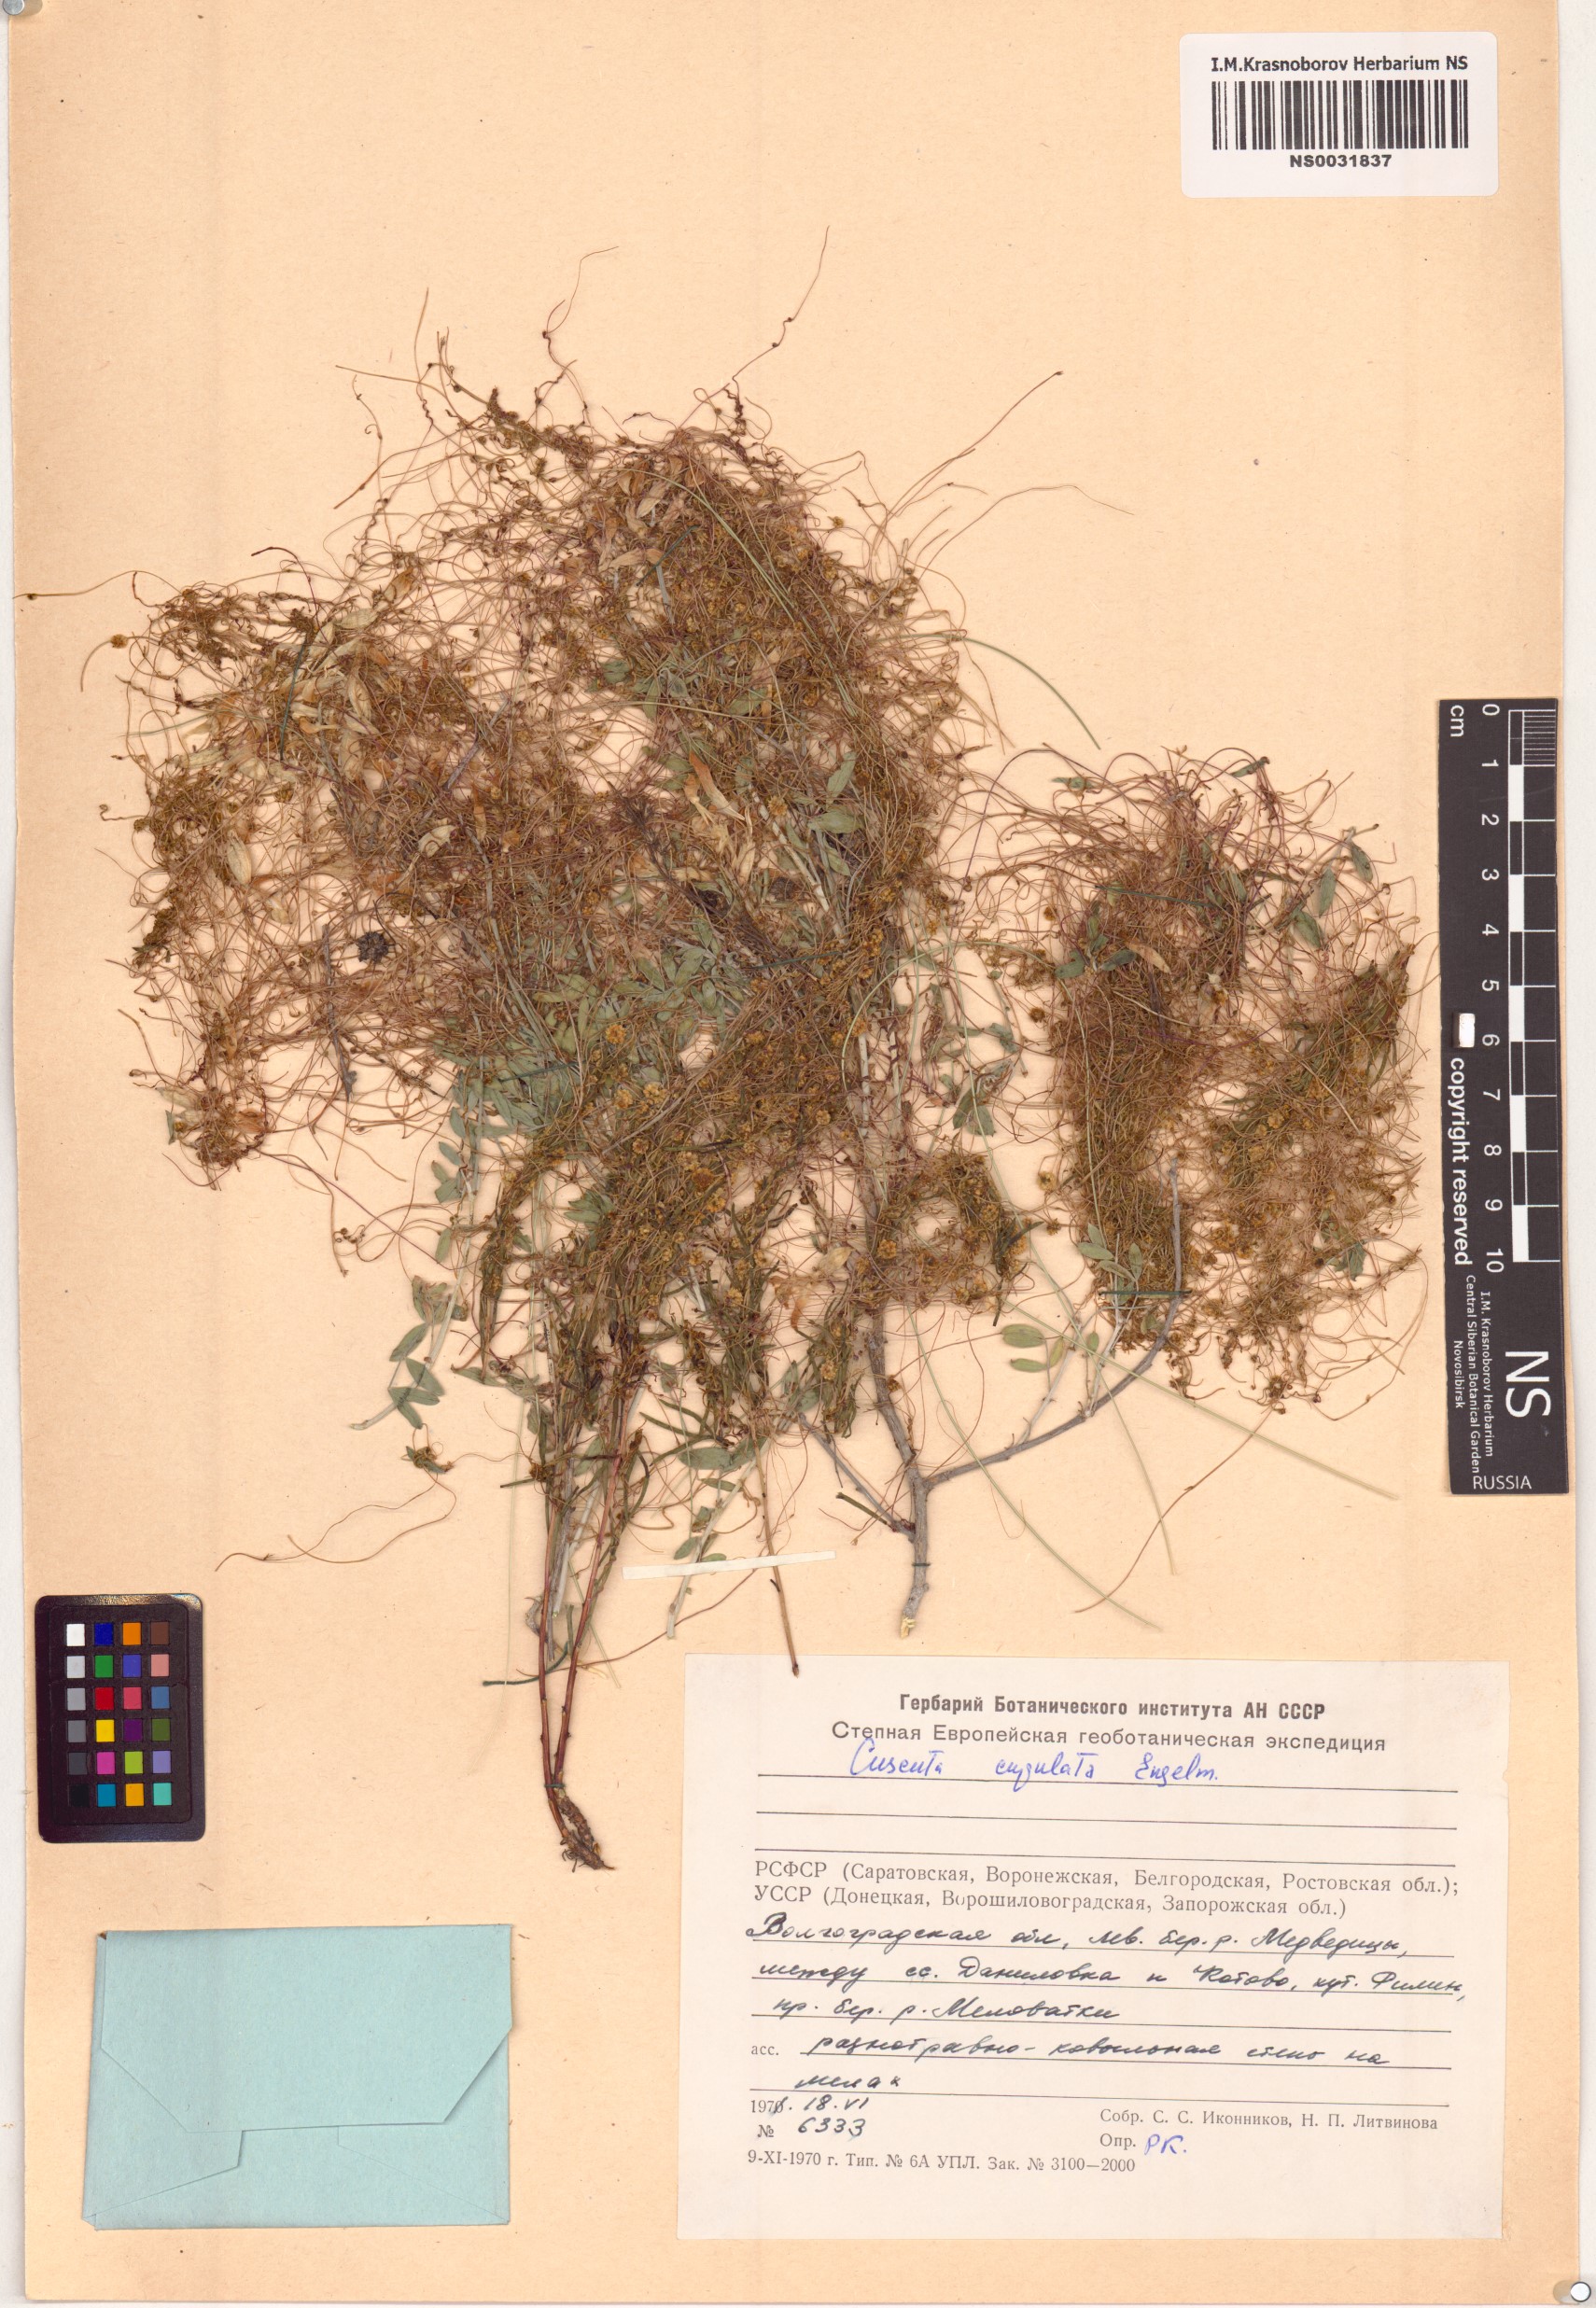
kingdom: Plantae
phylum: Tracheophyta
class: Magnoliopsida
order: Solanales
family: Convolvulaceae
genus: Cuscuta
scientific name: Cuscuta approximata
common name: Alfalfa dodder
